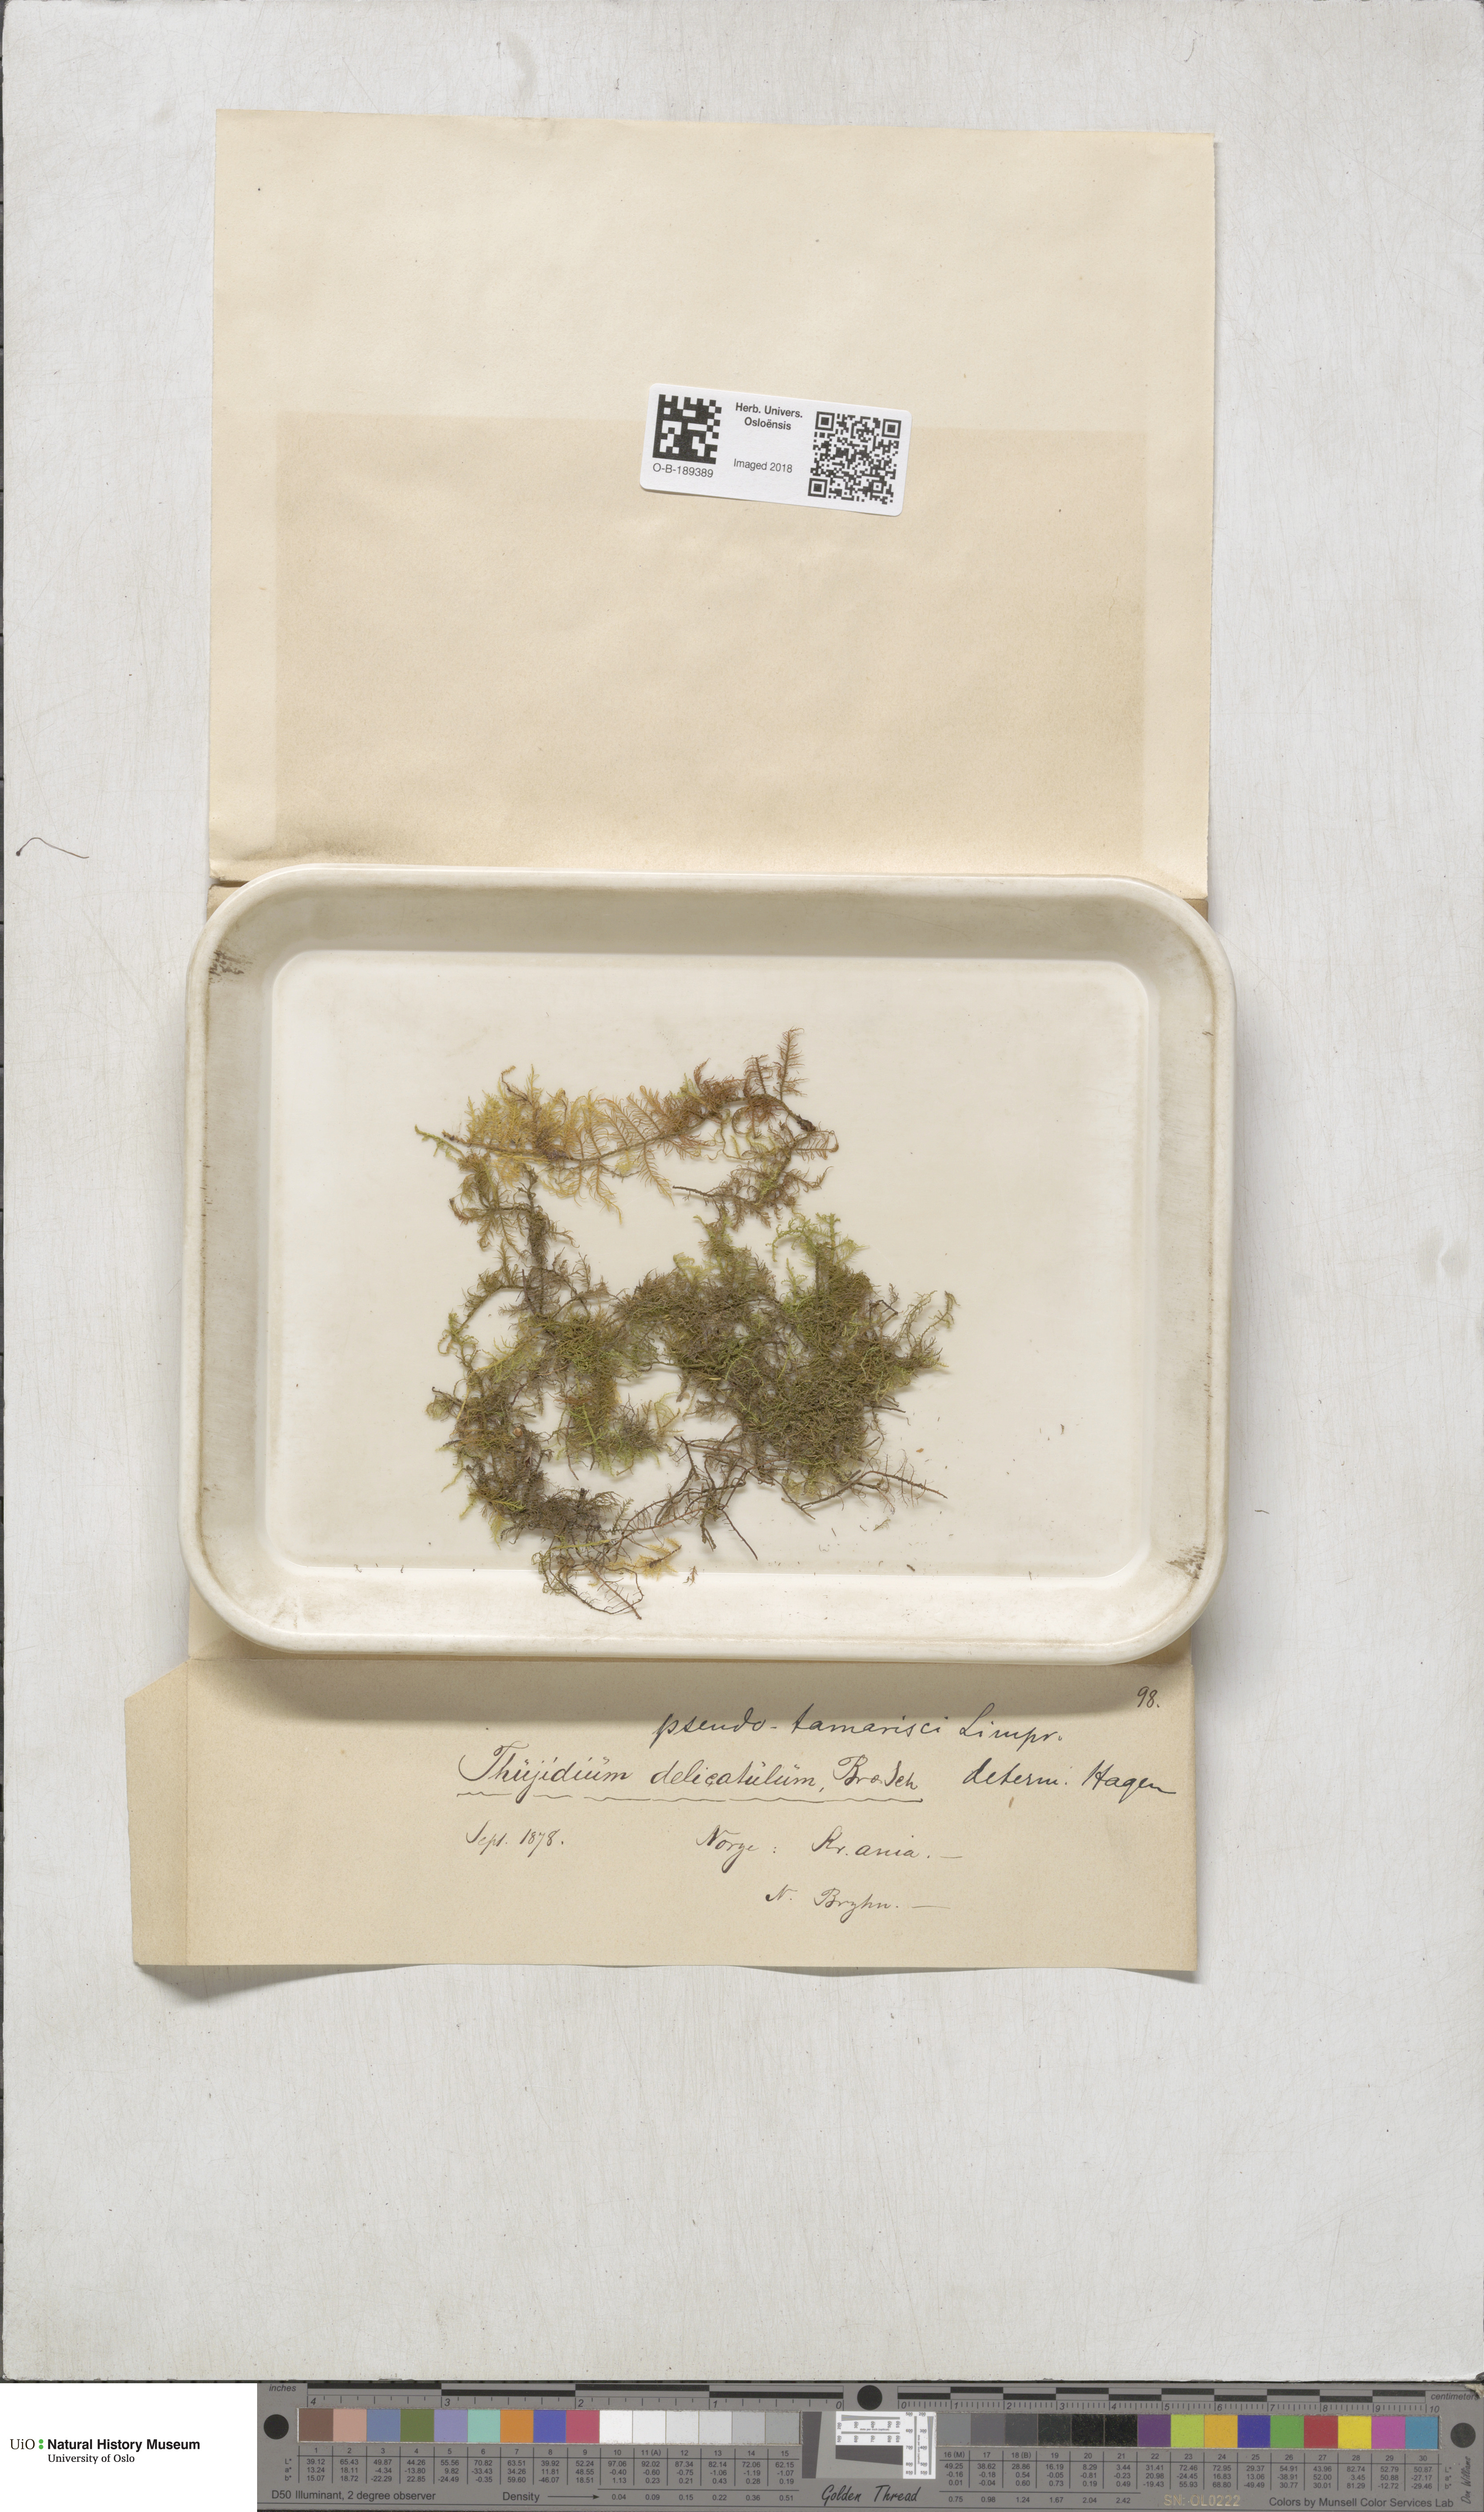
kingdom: Plantae
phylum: Bryophyta
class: Bryopsida
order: Hypnales
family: Thuidiaceae
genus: Thuidium
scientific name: Thuidium assimile
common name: Philibert's fern moss
